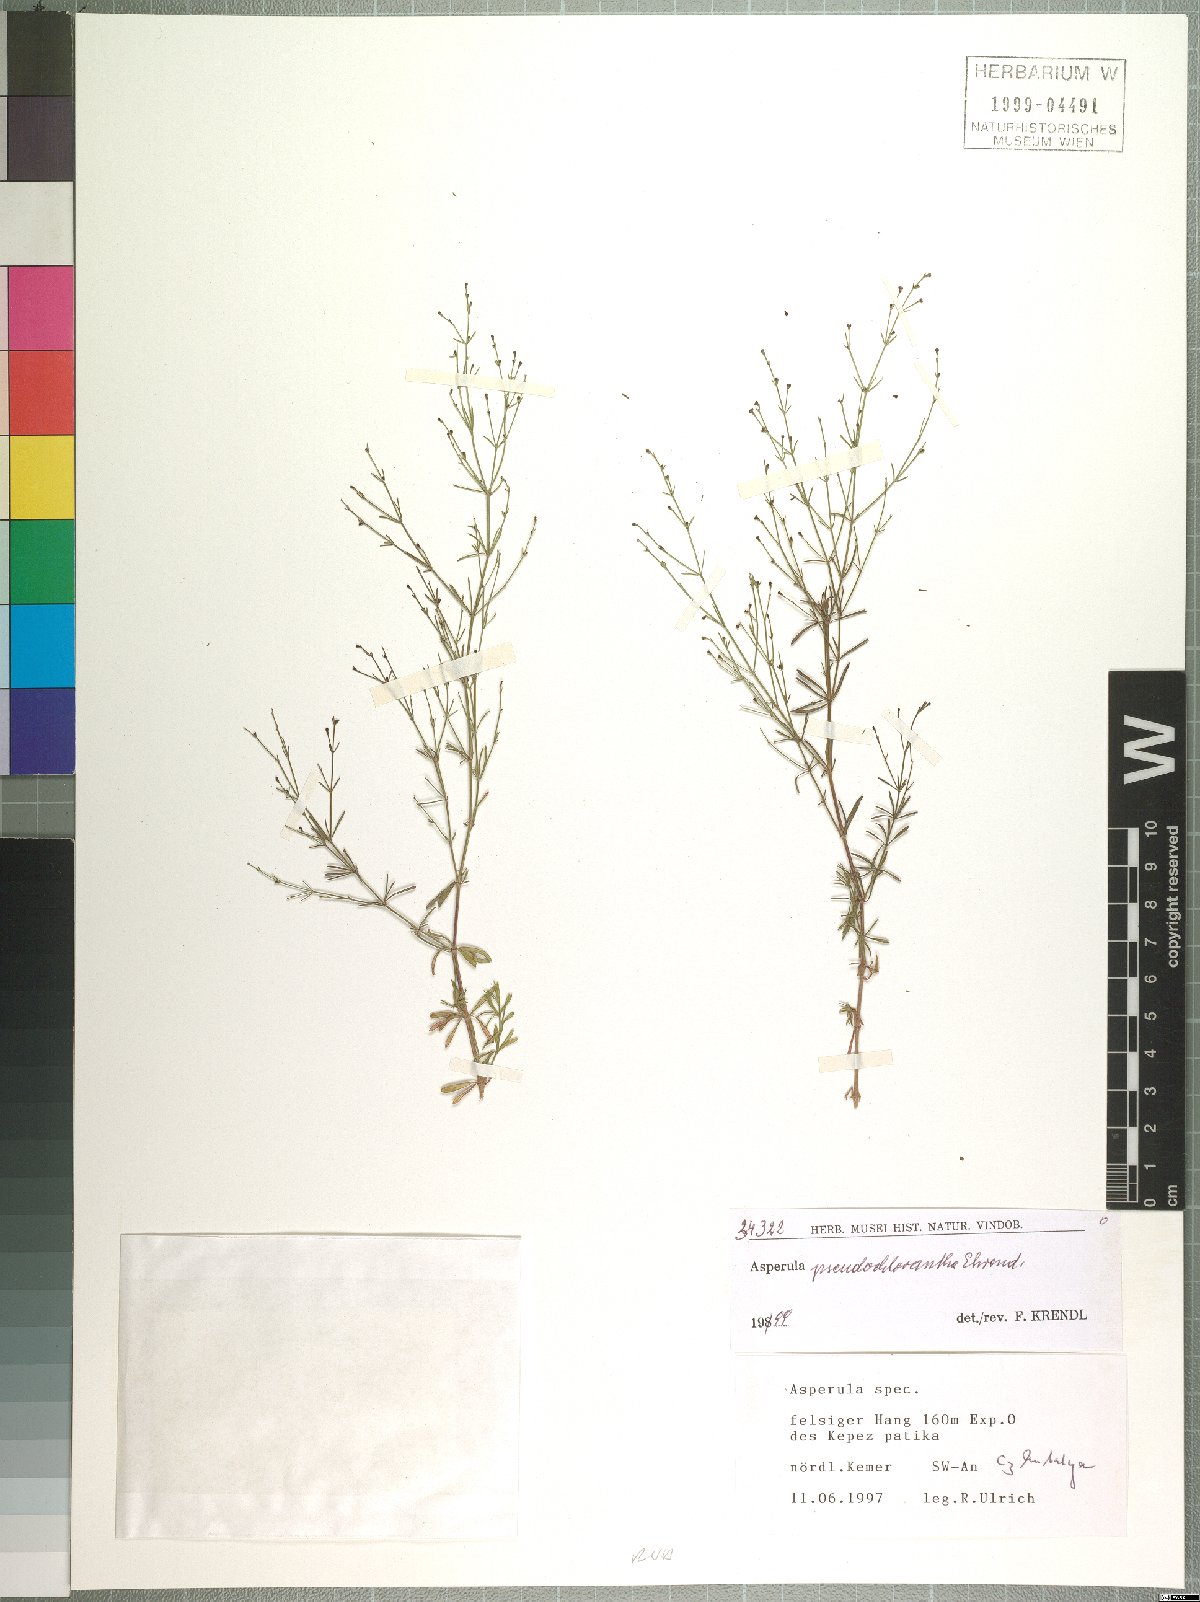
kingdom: Plantae
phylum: Tracheophyta
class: Magnoliopsida
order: Gentianales
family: Rubiaceae
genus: Thliphthisa
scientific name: Thliphthisa pseudochlorantha
